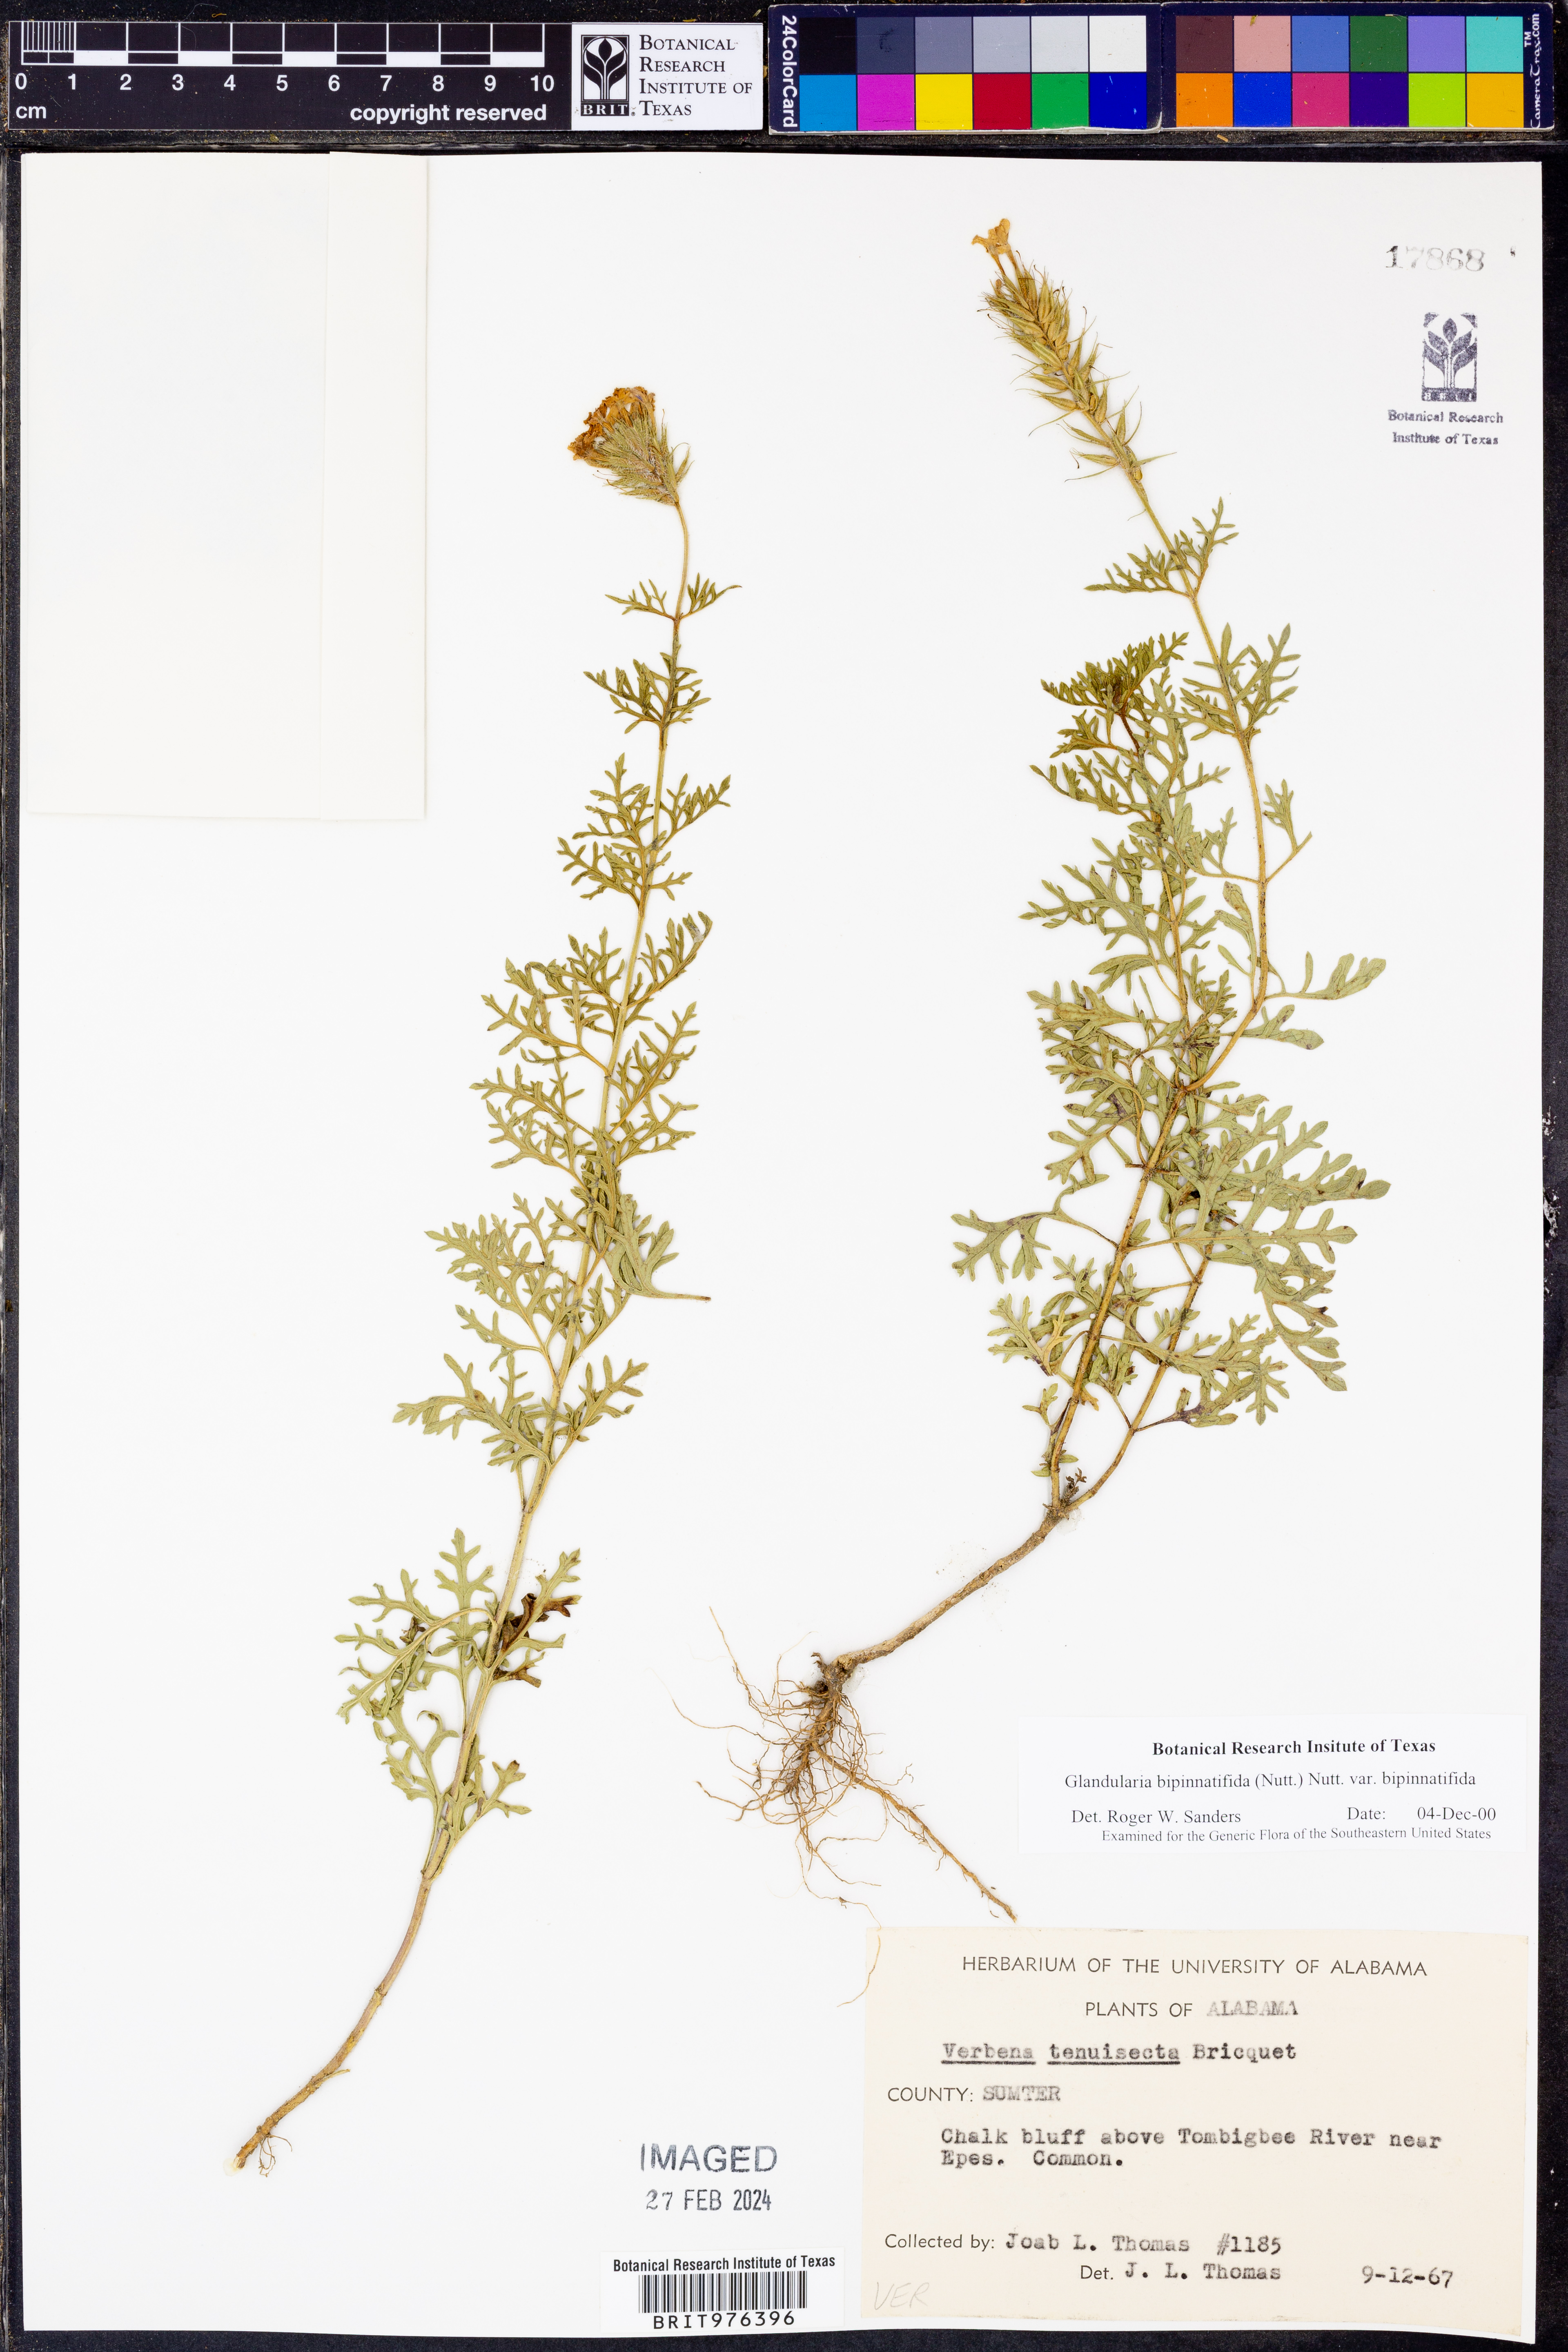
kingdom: Plantae
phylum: Tracheophyta
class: Magnoliopsida
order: Lamiales
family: Verbenaceae
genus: Verbena
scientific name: Verbena bipinnatifida
